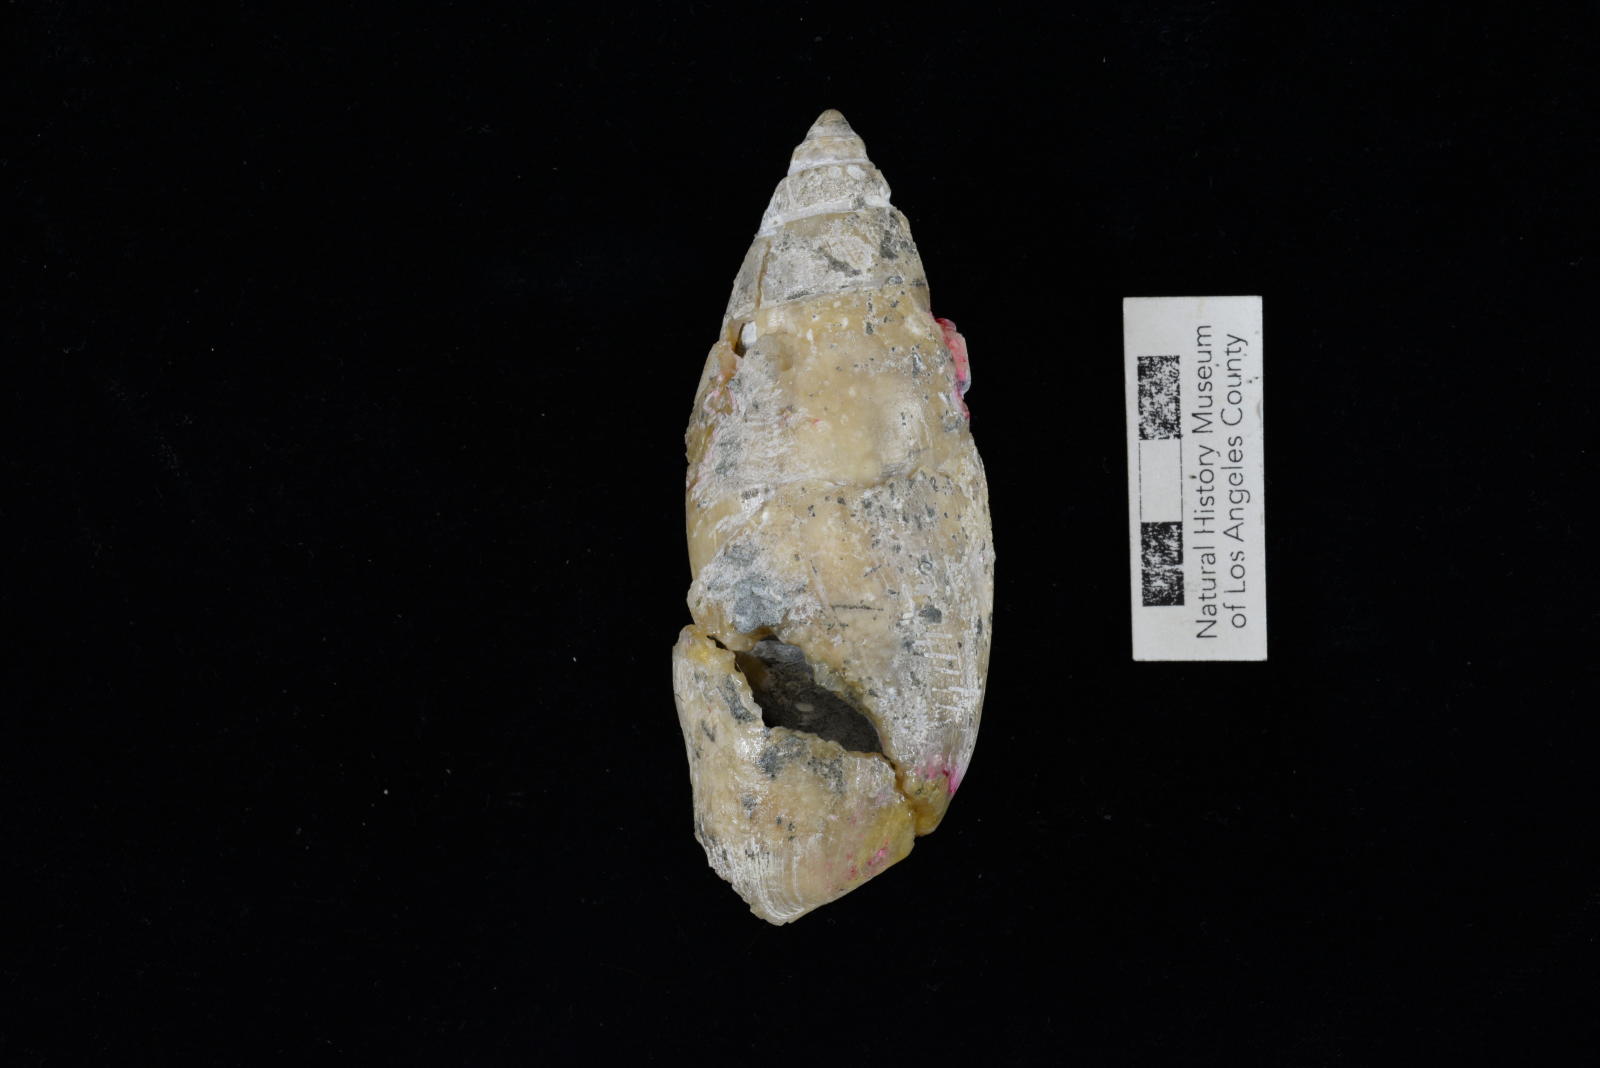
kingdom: Animalia
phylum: Mollusca
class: Gastropoda
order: Cephalaspidea
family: Acteonidae
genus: Tornatellaea
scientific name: Tornatellaea
